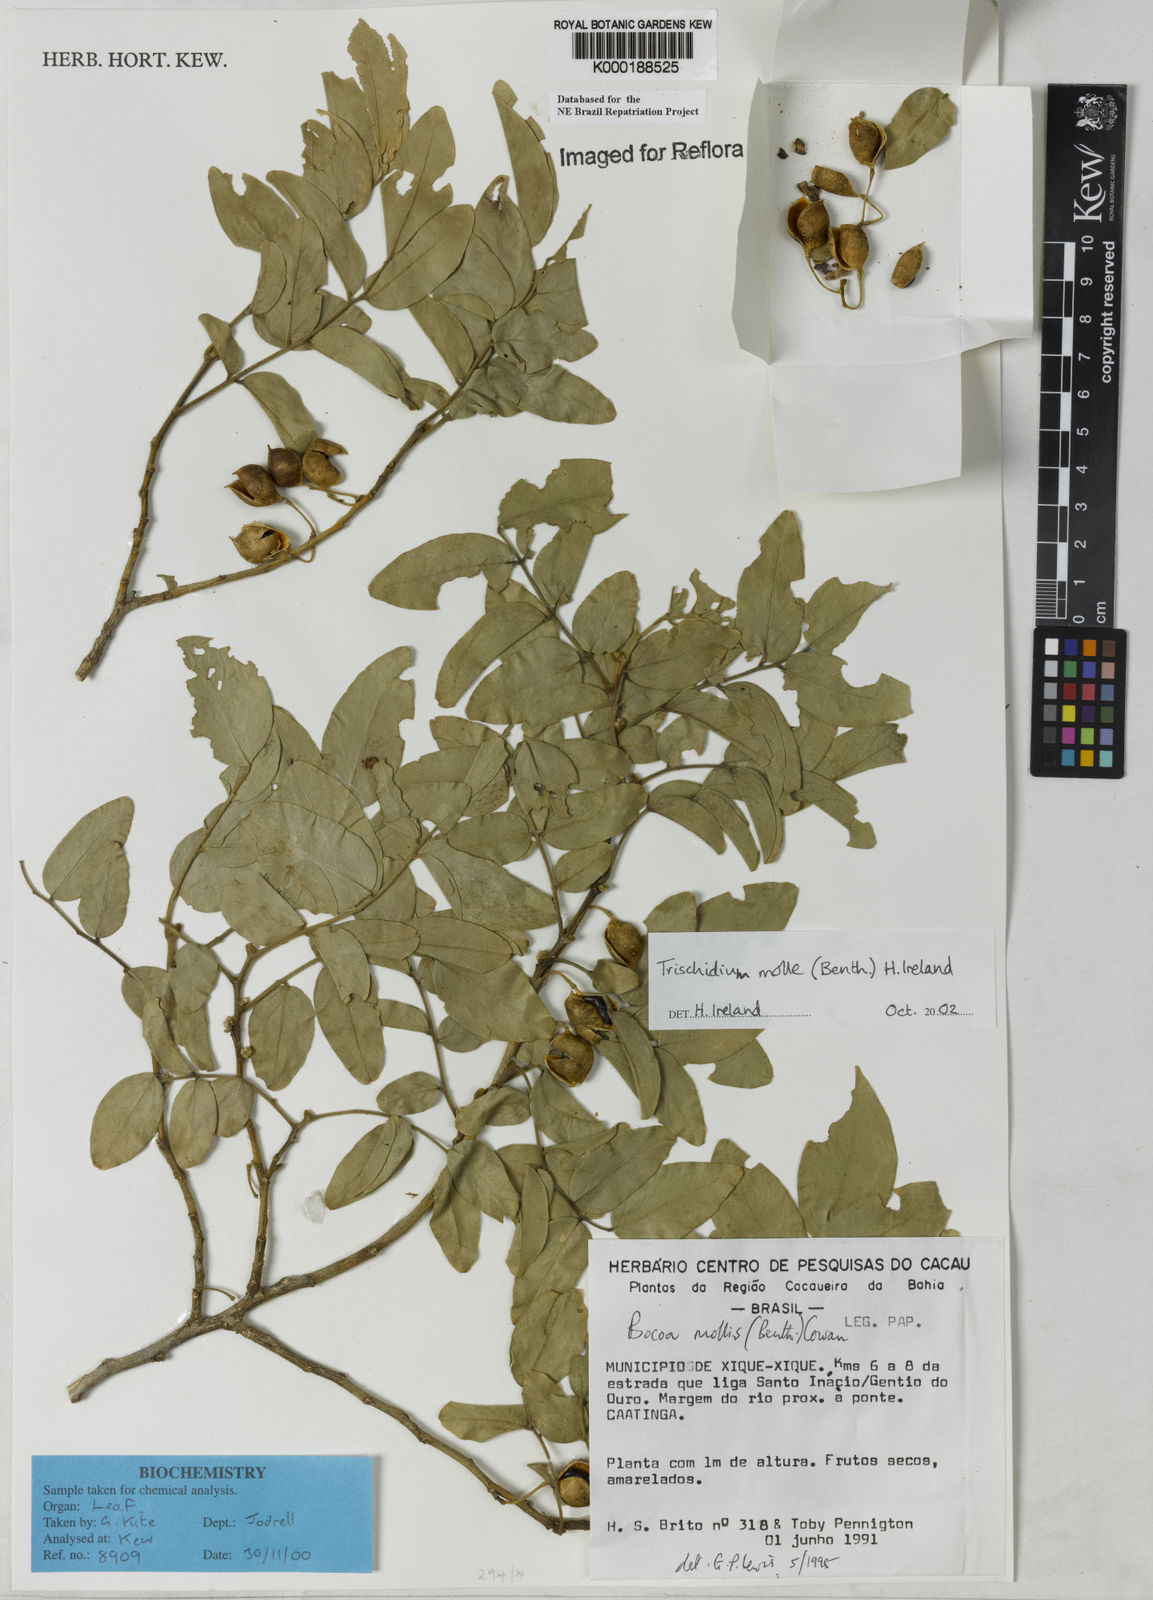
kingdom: Plantae
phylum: Tracheophyta
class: Magnoliopsida
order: Fabales
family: Fabaceae
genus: Trischidium
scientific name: Trischidium
